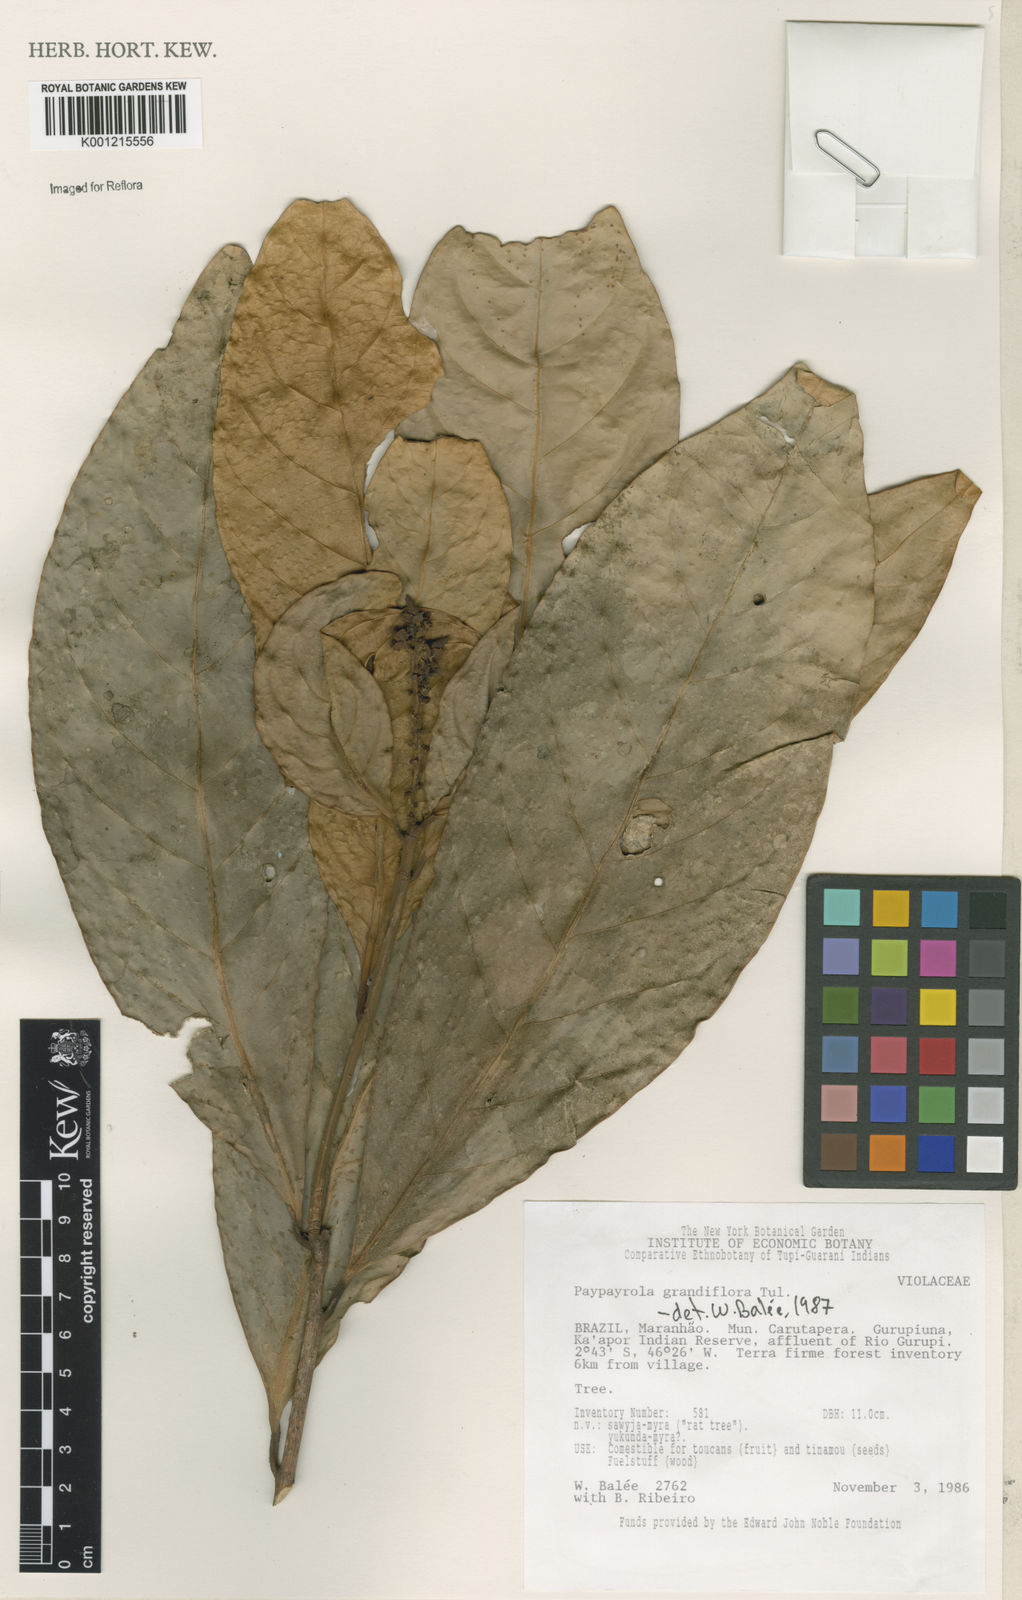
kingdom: Plantae
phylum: Tracheophyta
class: Magnoliopsida
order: Malpighiales
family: Violaceae
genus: Paypayrola
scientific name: Paypayrola grandiflora
